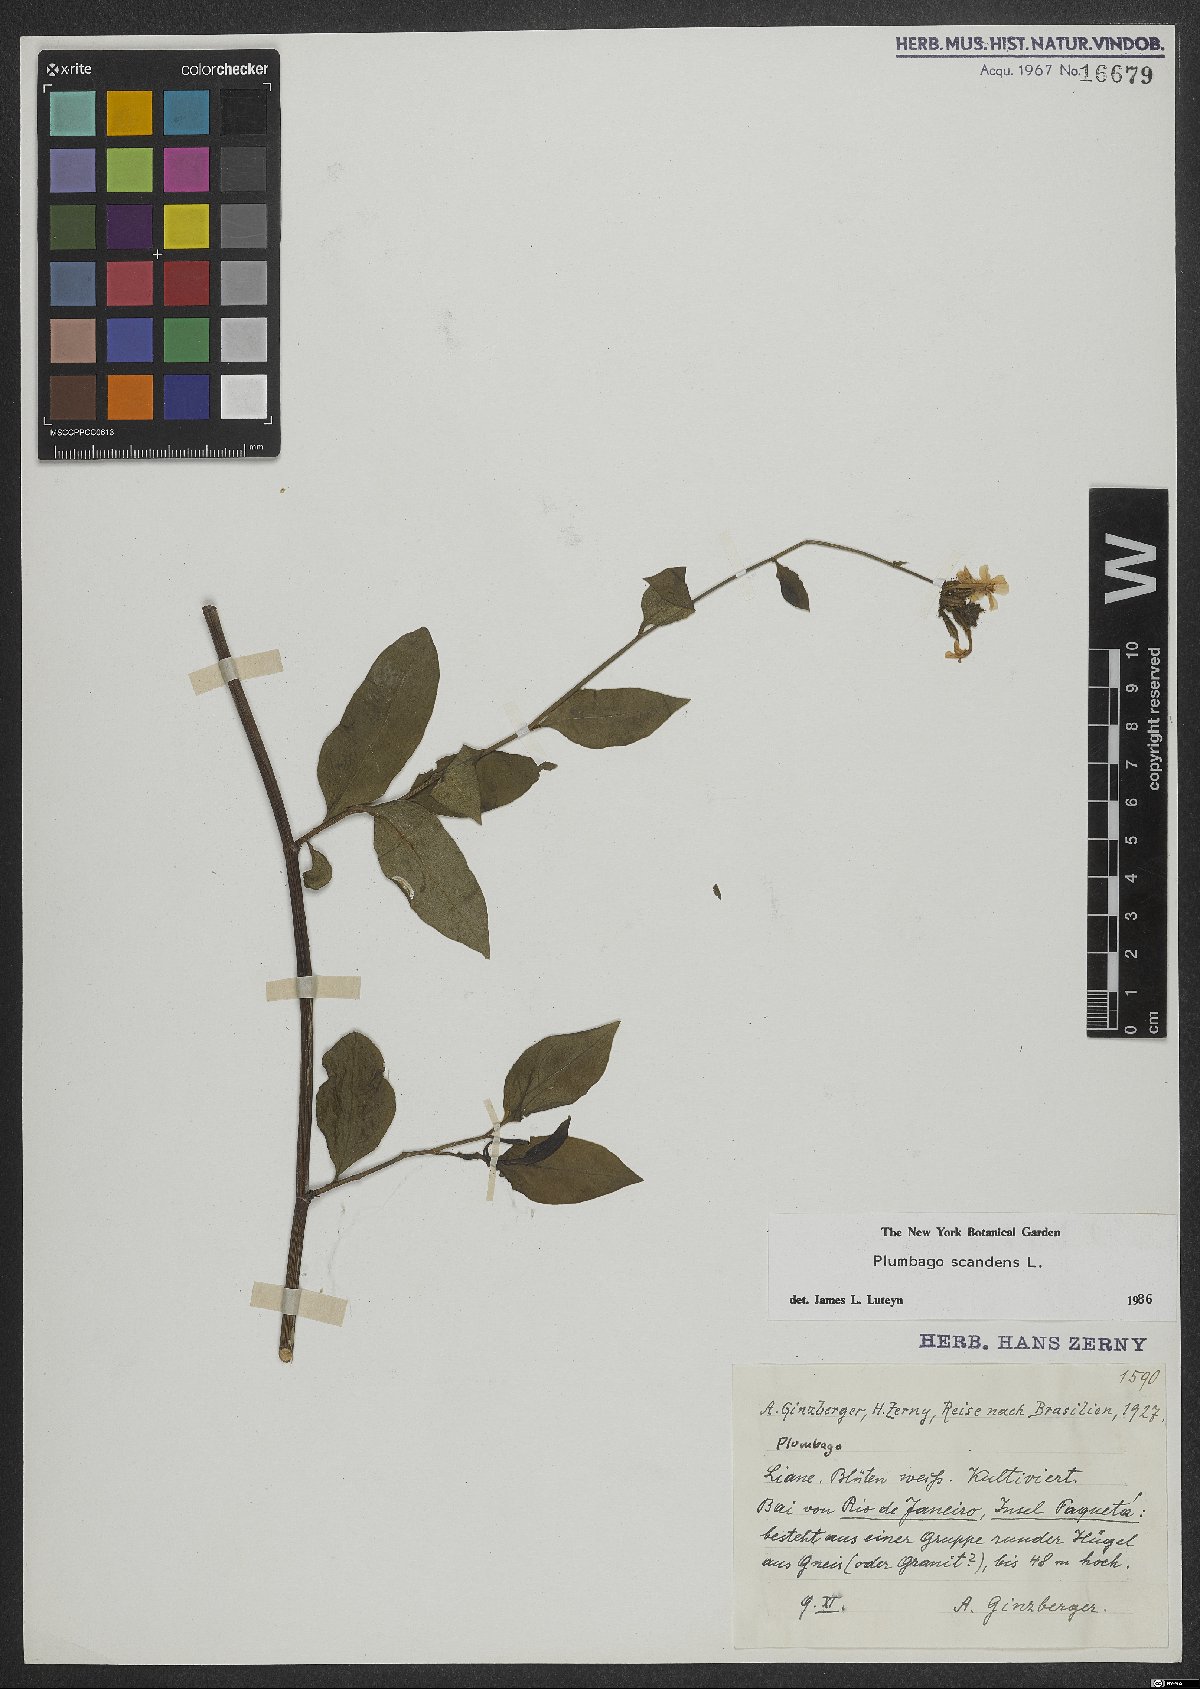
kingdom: Plantae
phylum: Tracheophyta
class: Magnoliopsida
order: Caryophyllales
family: Plumbaginaceae
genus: Plumbago
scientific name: Plumbago zeylanica
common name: Doctorbush
